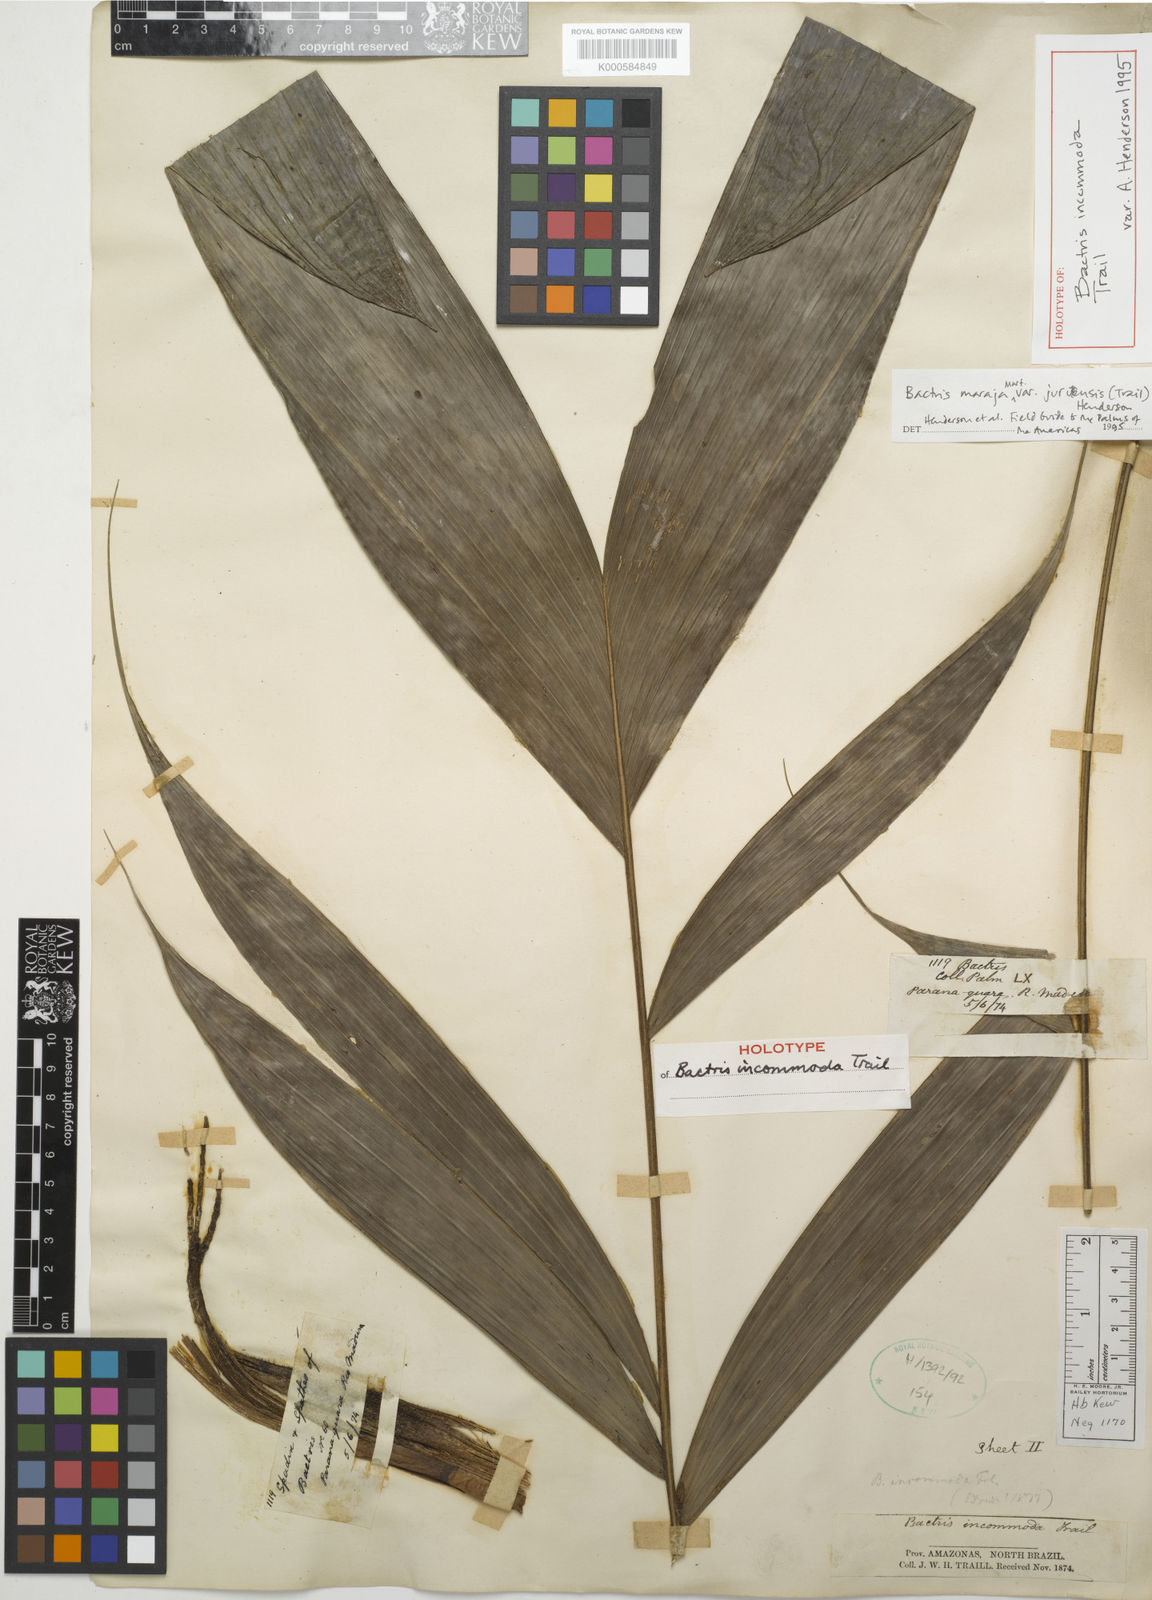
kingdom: Plantae
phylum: Tracheophyta
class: Liliopsida
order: Arecales
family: Arecaceae
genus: Bactris
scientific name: Bactris maraja
